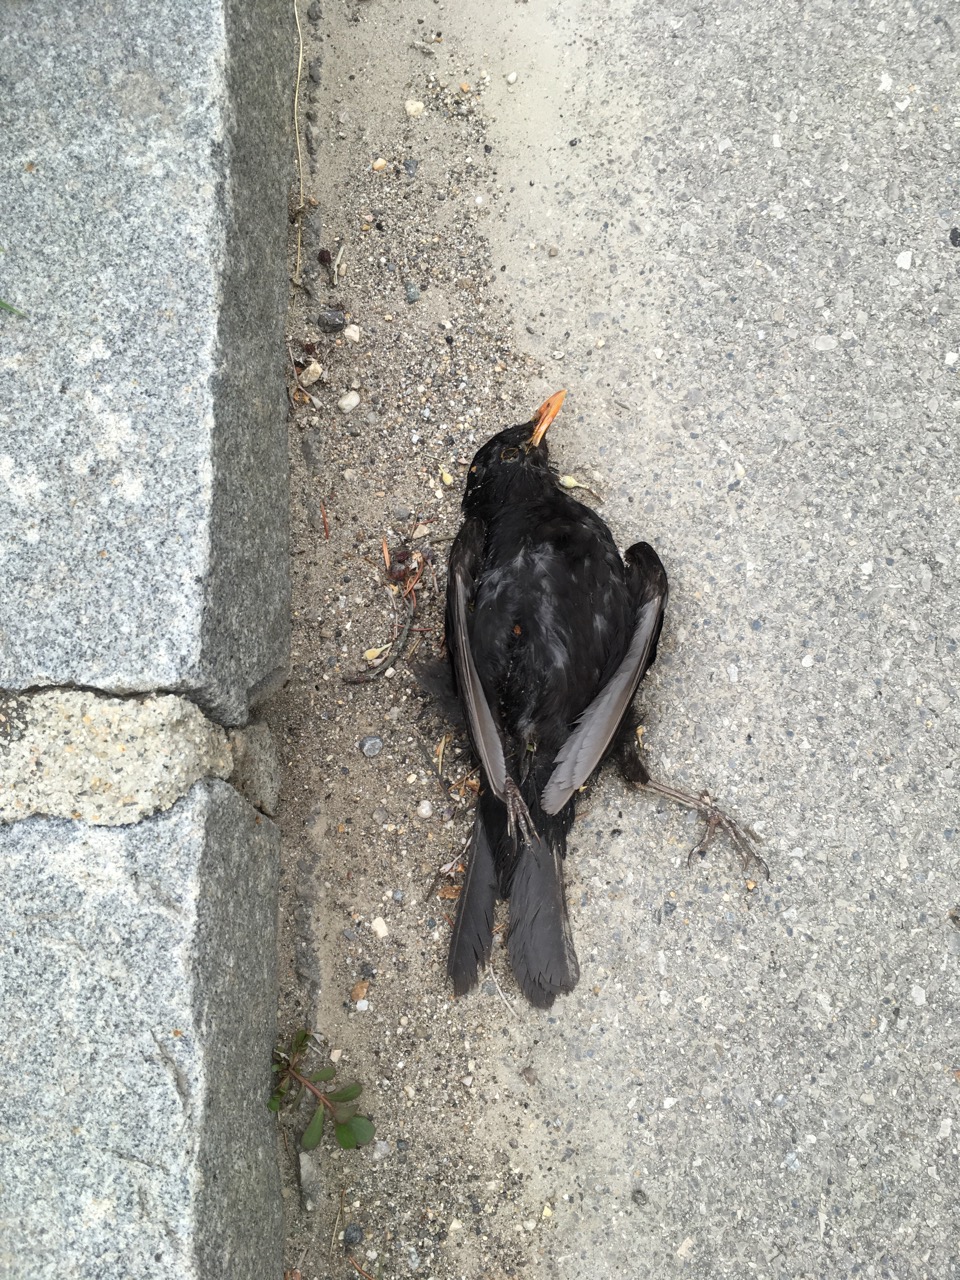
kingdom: Animalia
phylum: Chordata
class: Aves
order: Passeriformes
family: Turdidae
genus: Turdus
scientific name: Turdus merula
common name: Common blackbird
